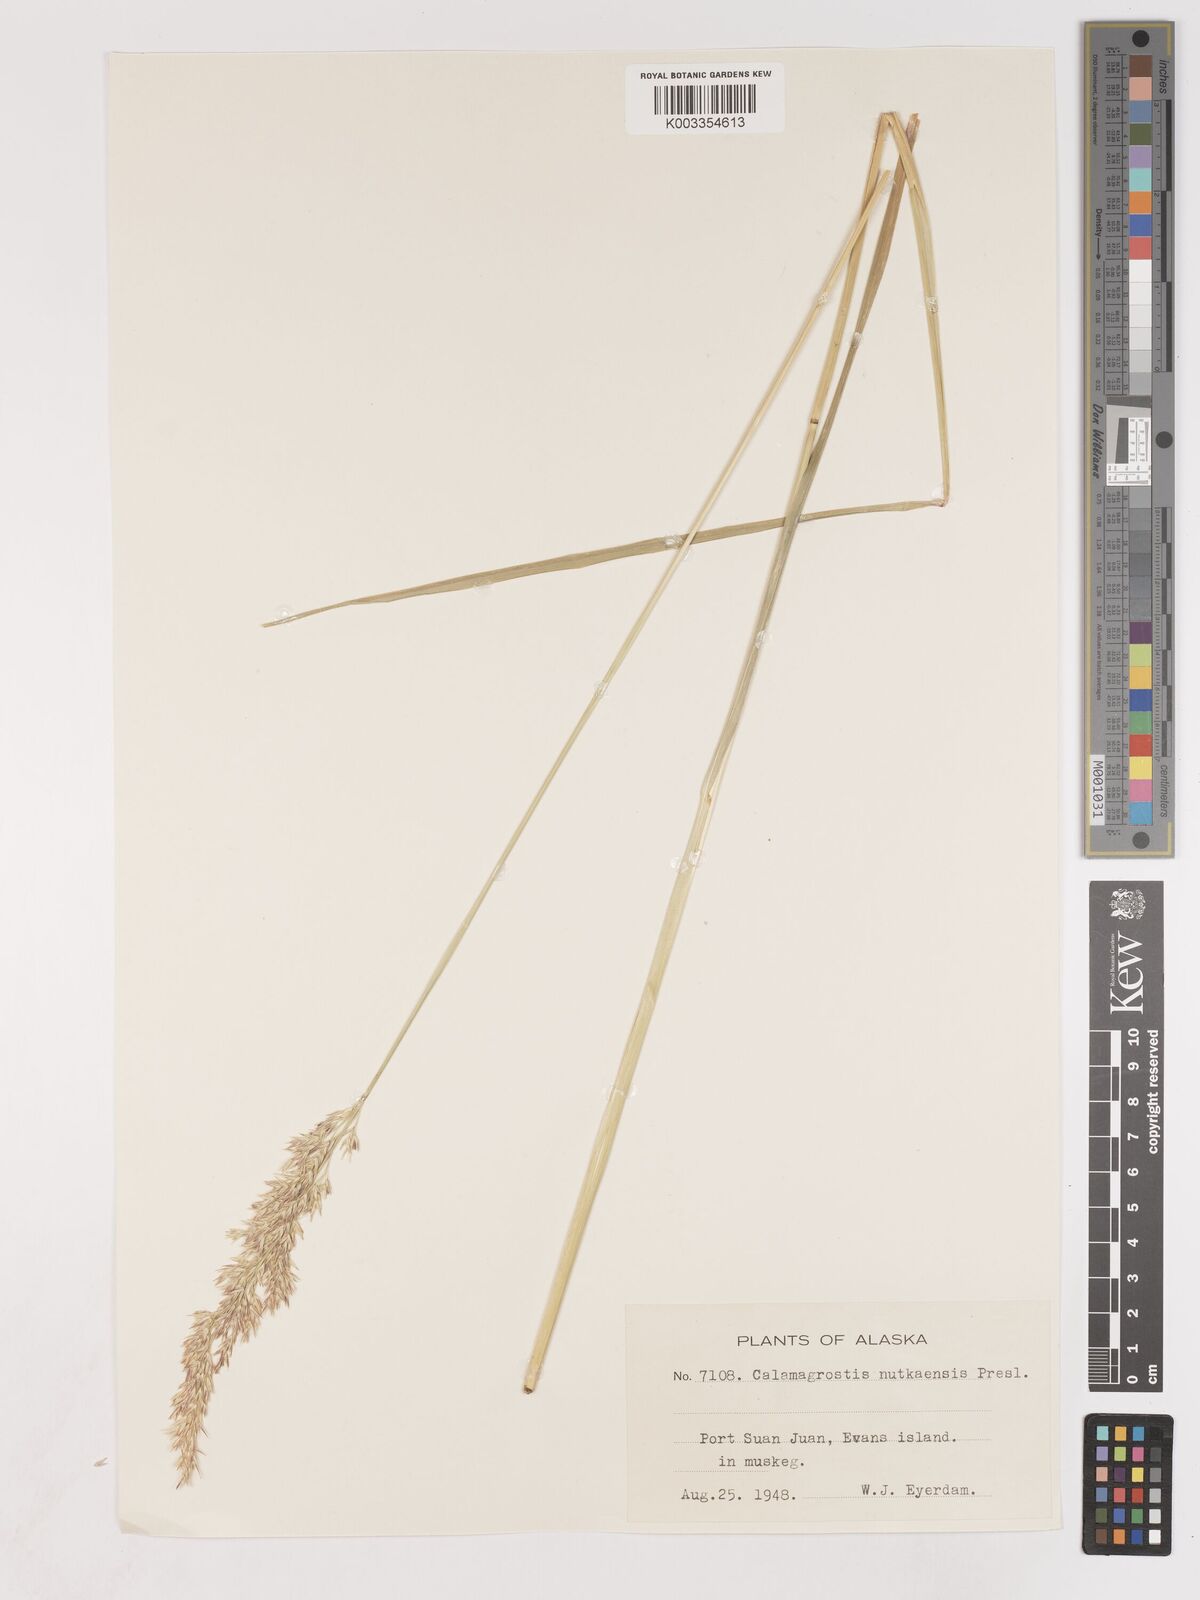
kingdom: Plantae
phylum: Tracheophyta
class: Liliopsida
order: Poales
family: Poaceae
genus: Calamagrostis
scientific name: Calamagrostis nutkaensis
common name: Pacific reed grass
